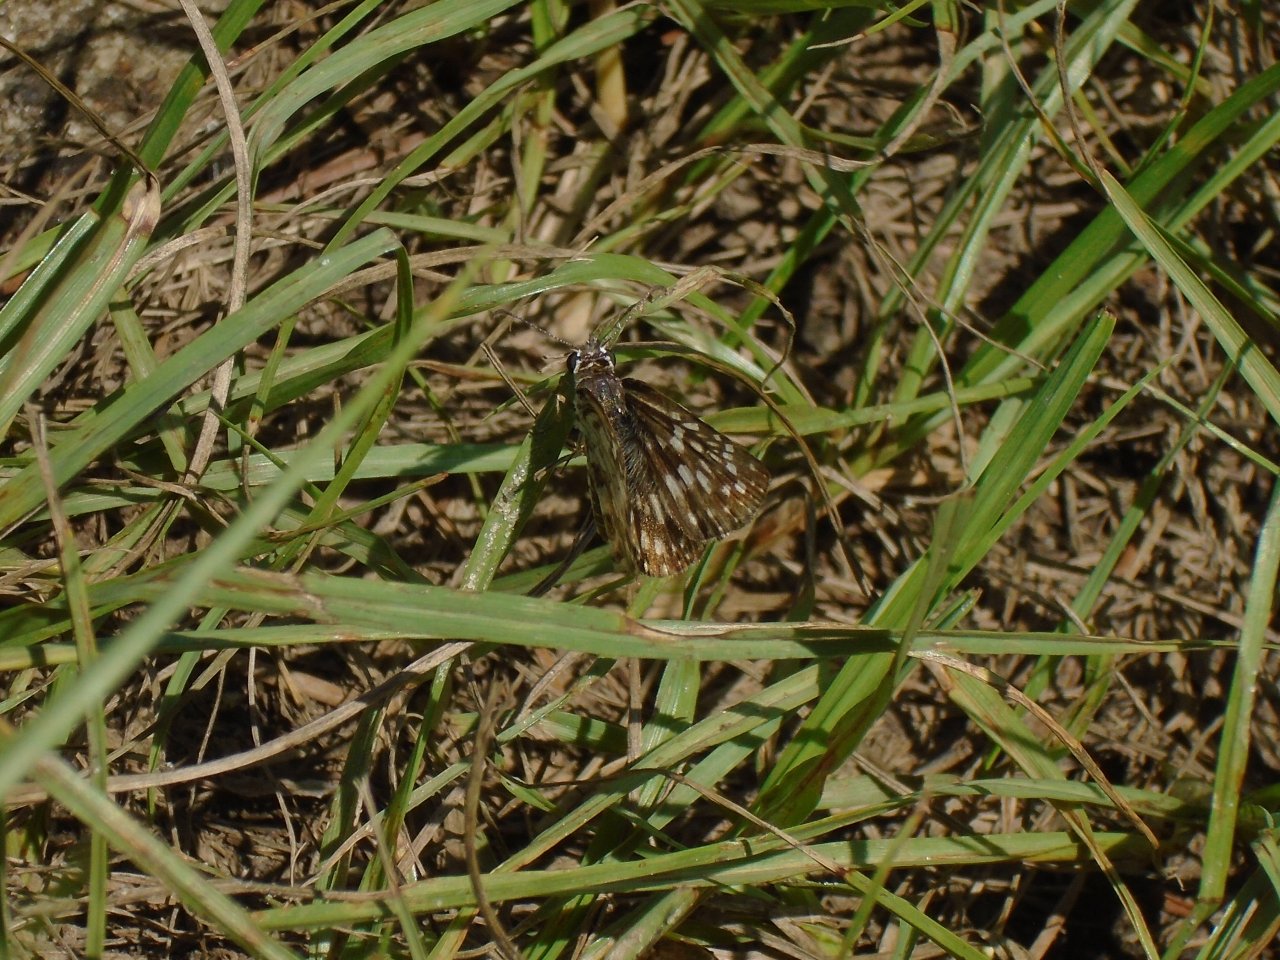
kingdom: Animalia
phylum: Arthropoda
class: Insecta
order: Lepidoptera
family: Hesperiidae
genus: Pyrgus
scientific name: Pyrgus oileus
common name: Tropical Checkered-Skipper
